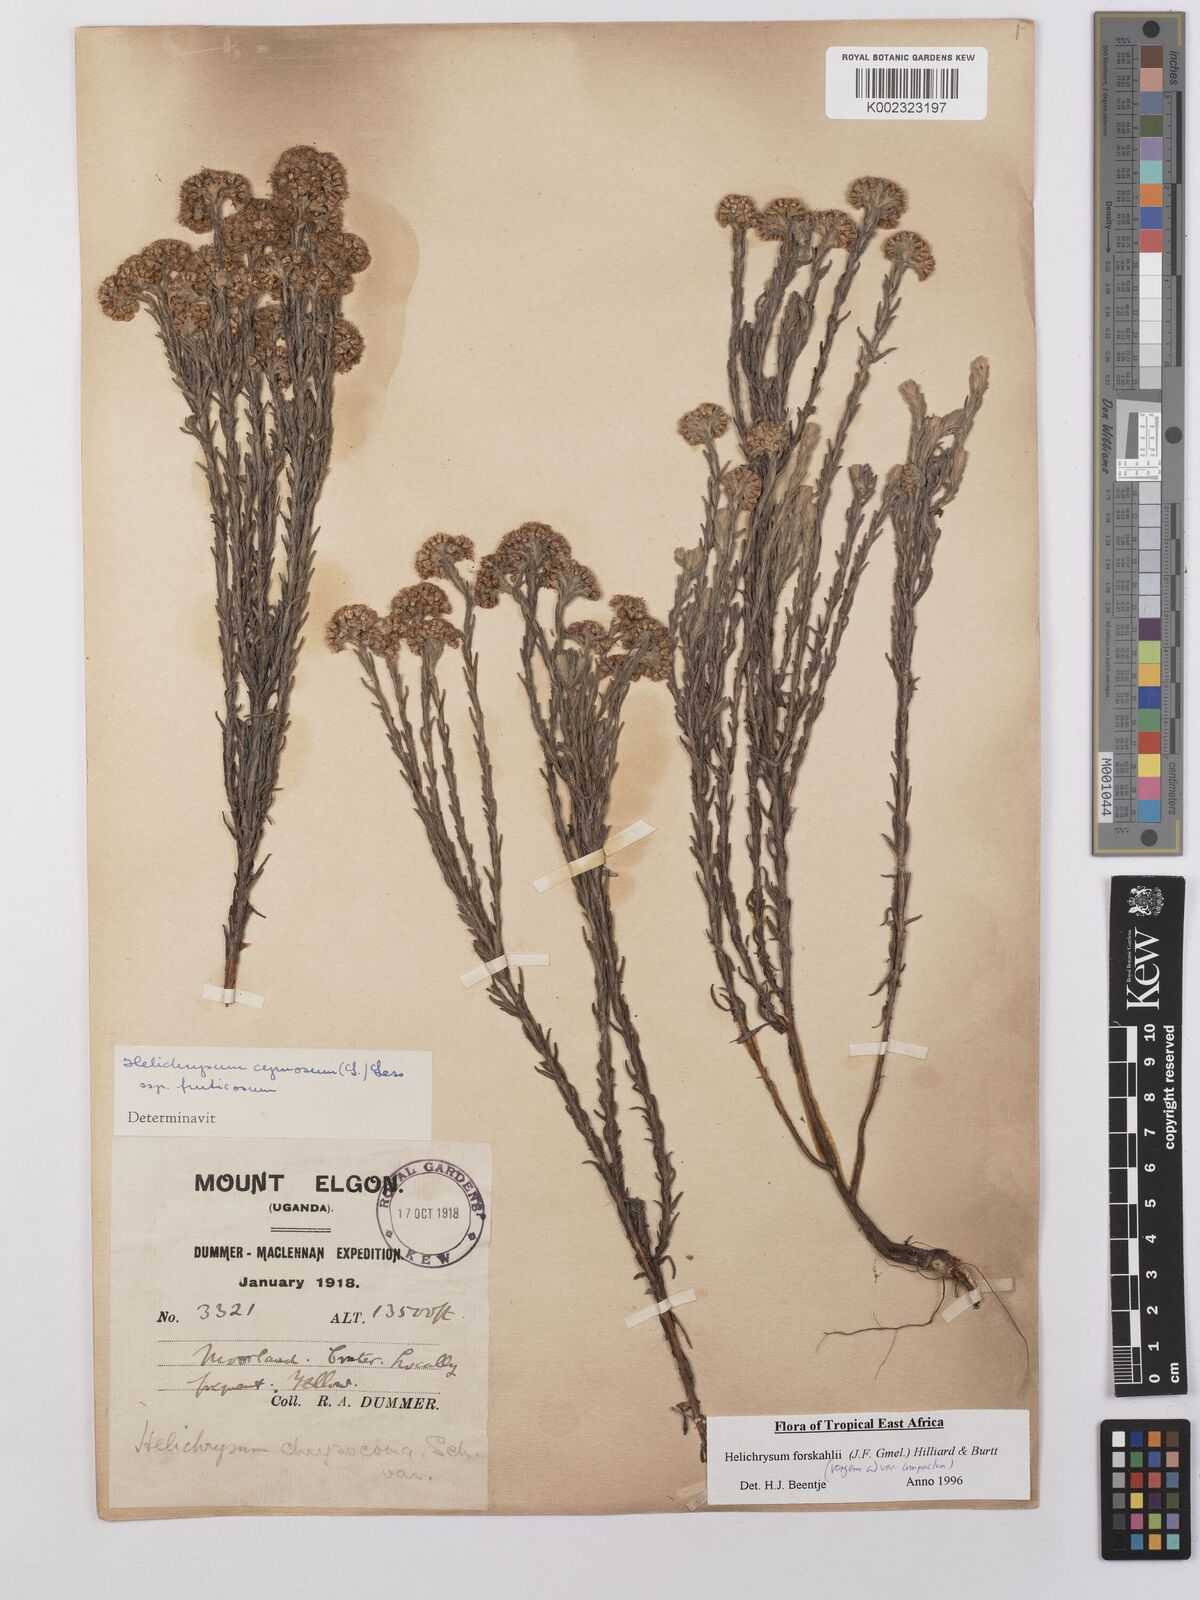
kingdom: Plantae
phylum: Tracheophyta
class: Magnoliopsida
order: Asterales
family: Asteraceae
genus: Helichrysum
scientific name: Helichrysum forskahlii
